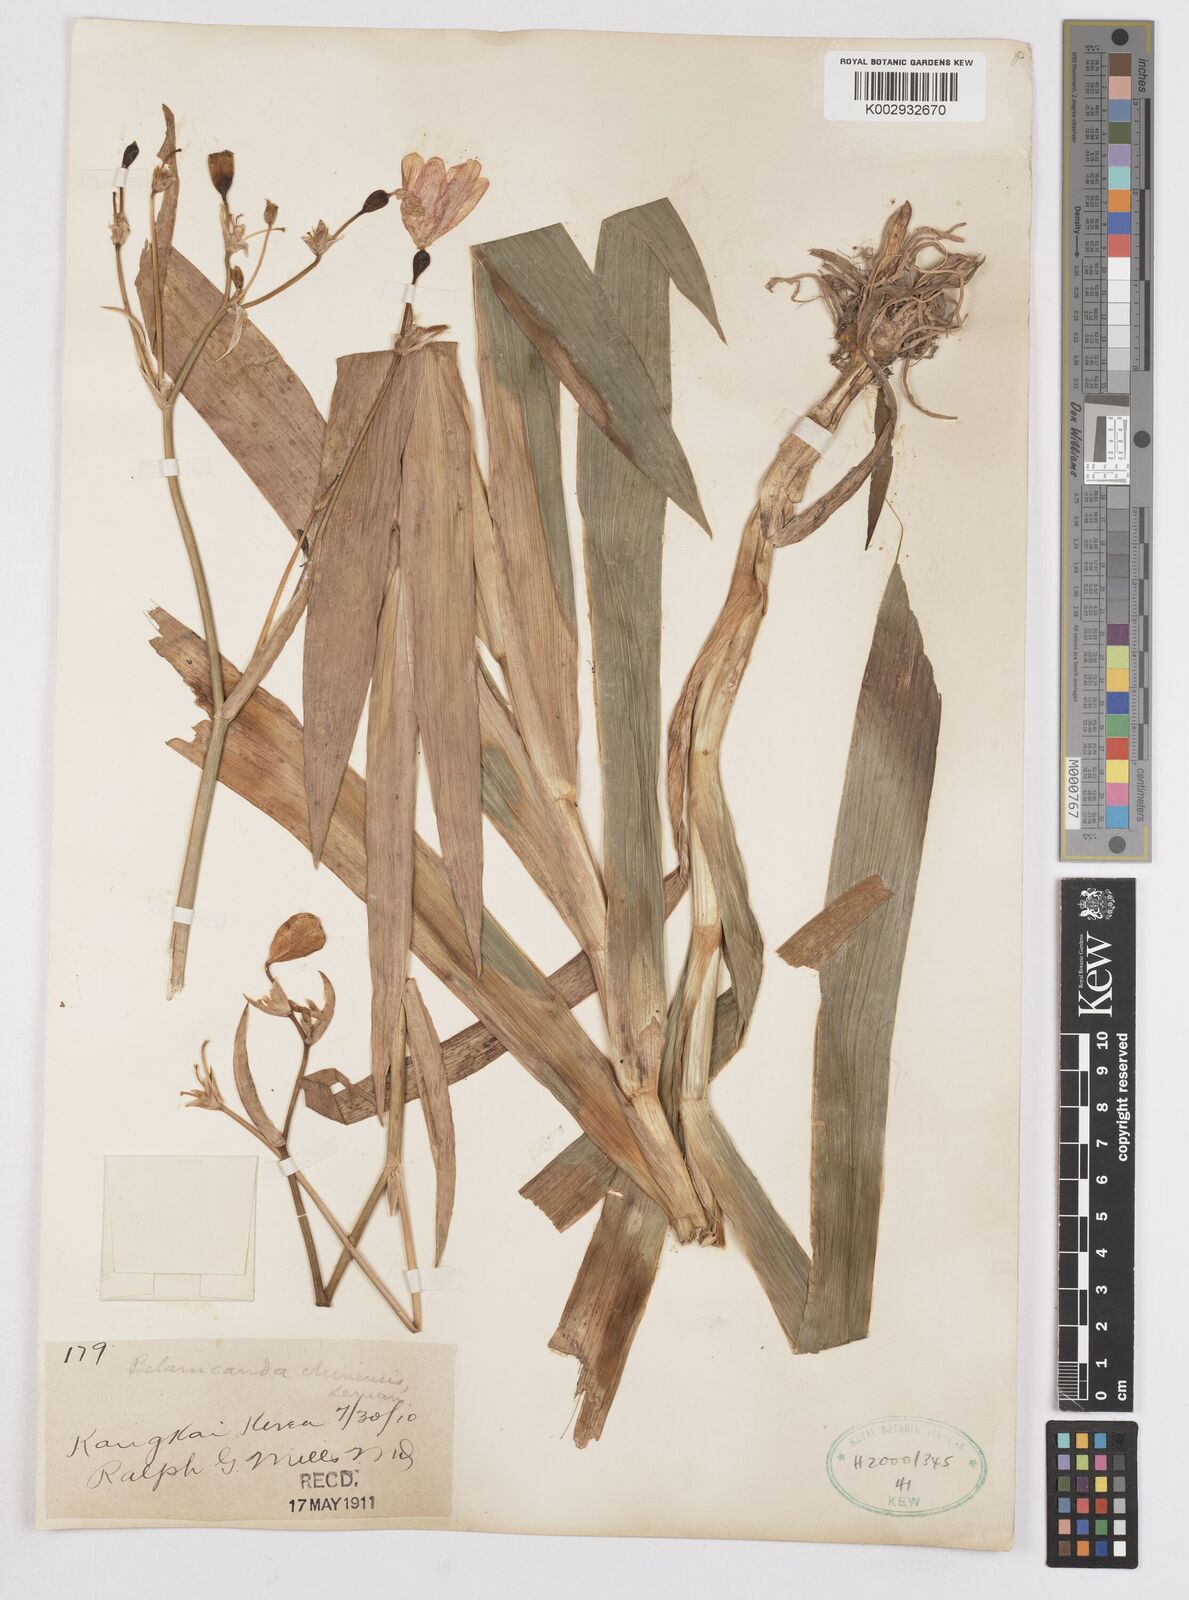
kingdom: Plantae
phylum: Tracheophyta
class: Liliopsida
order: Asparagales
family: Iridaceae
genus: Iris
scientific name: Iris
